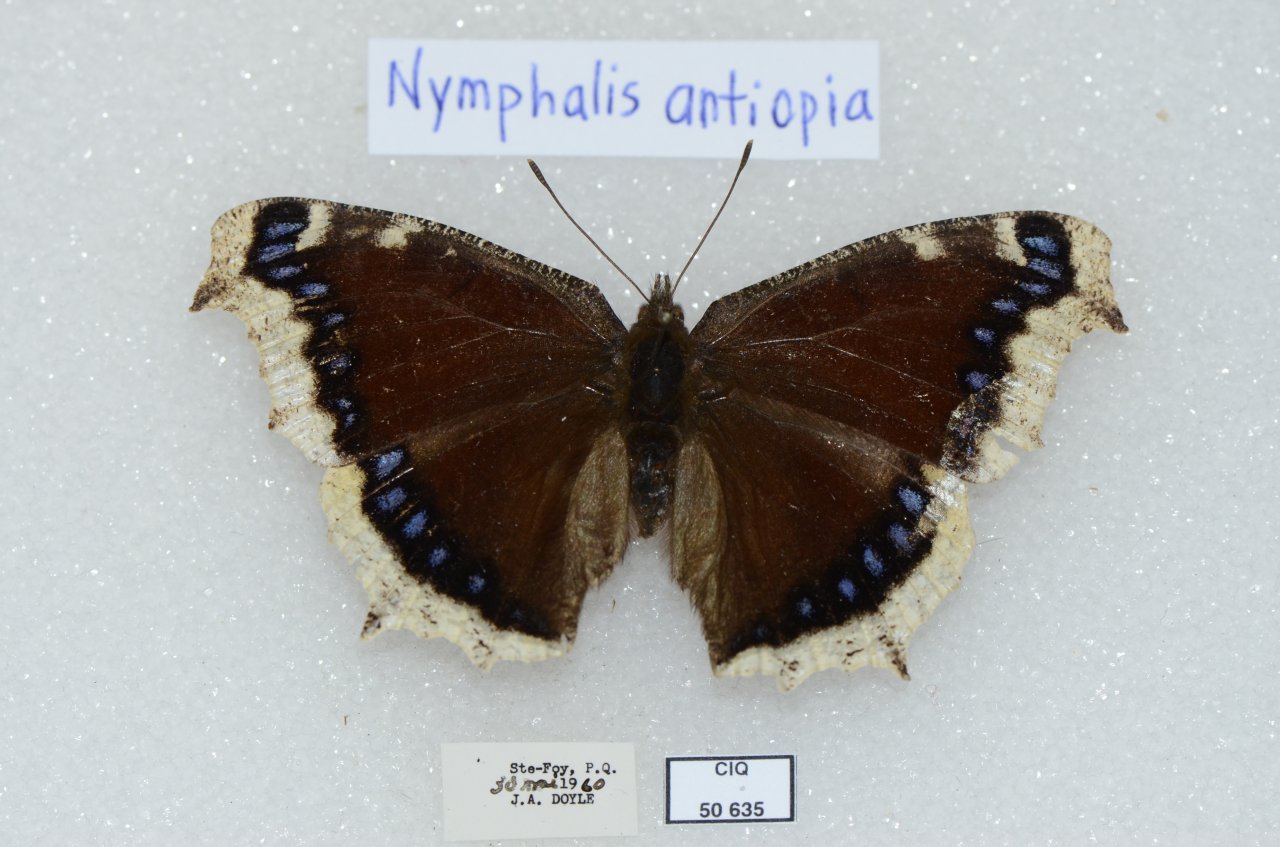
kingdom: Animalia
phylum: Arthropoda
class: Insecta
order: Lepidoptera
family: Nymphalidae
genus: Nymphalis
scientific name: Nymphalis antiopa
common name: Mourning Cloak
